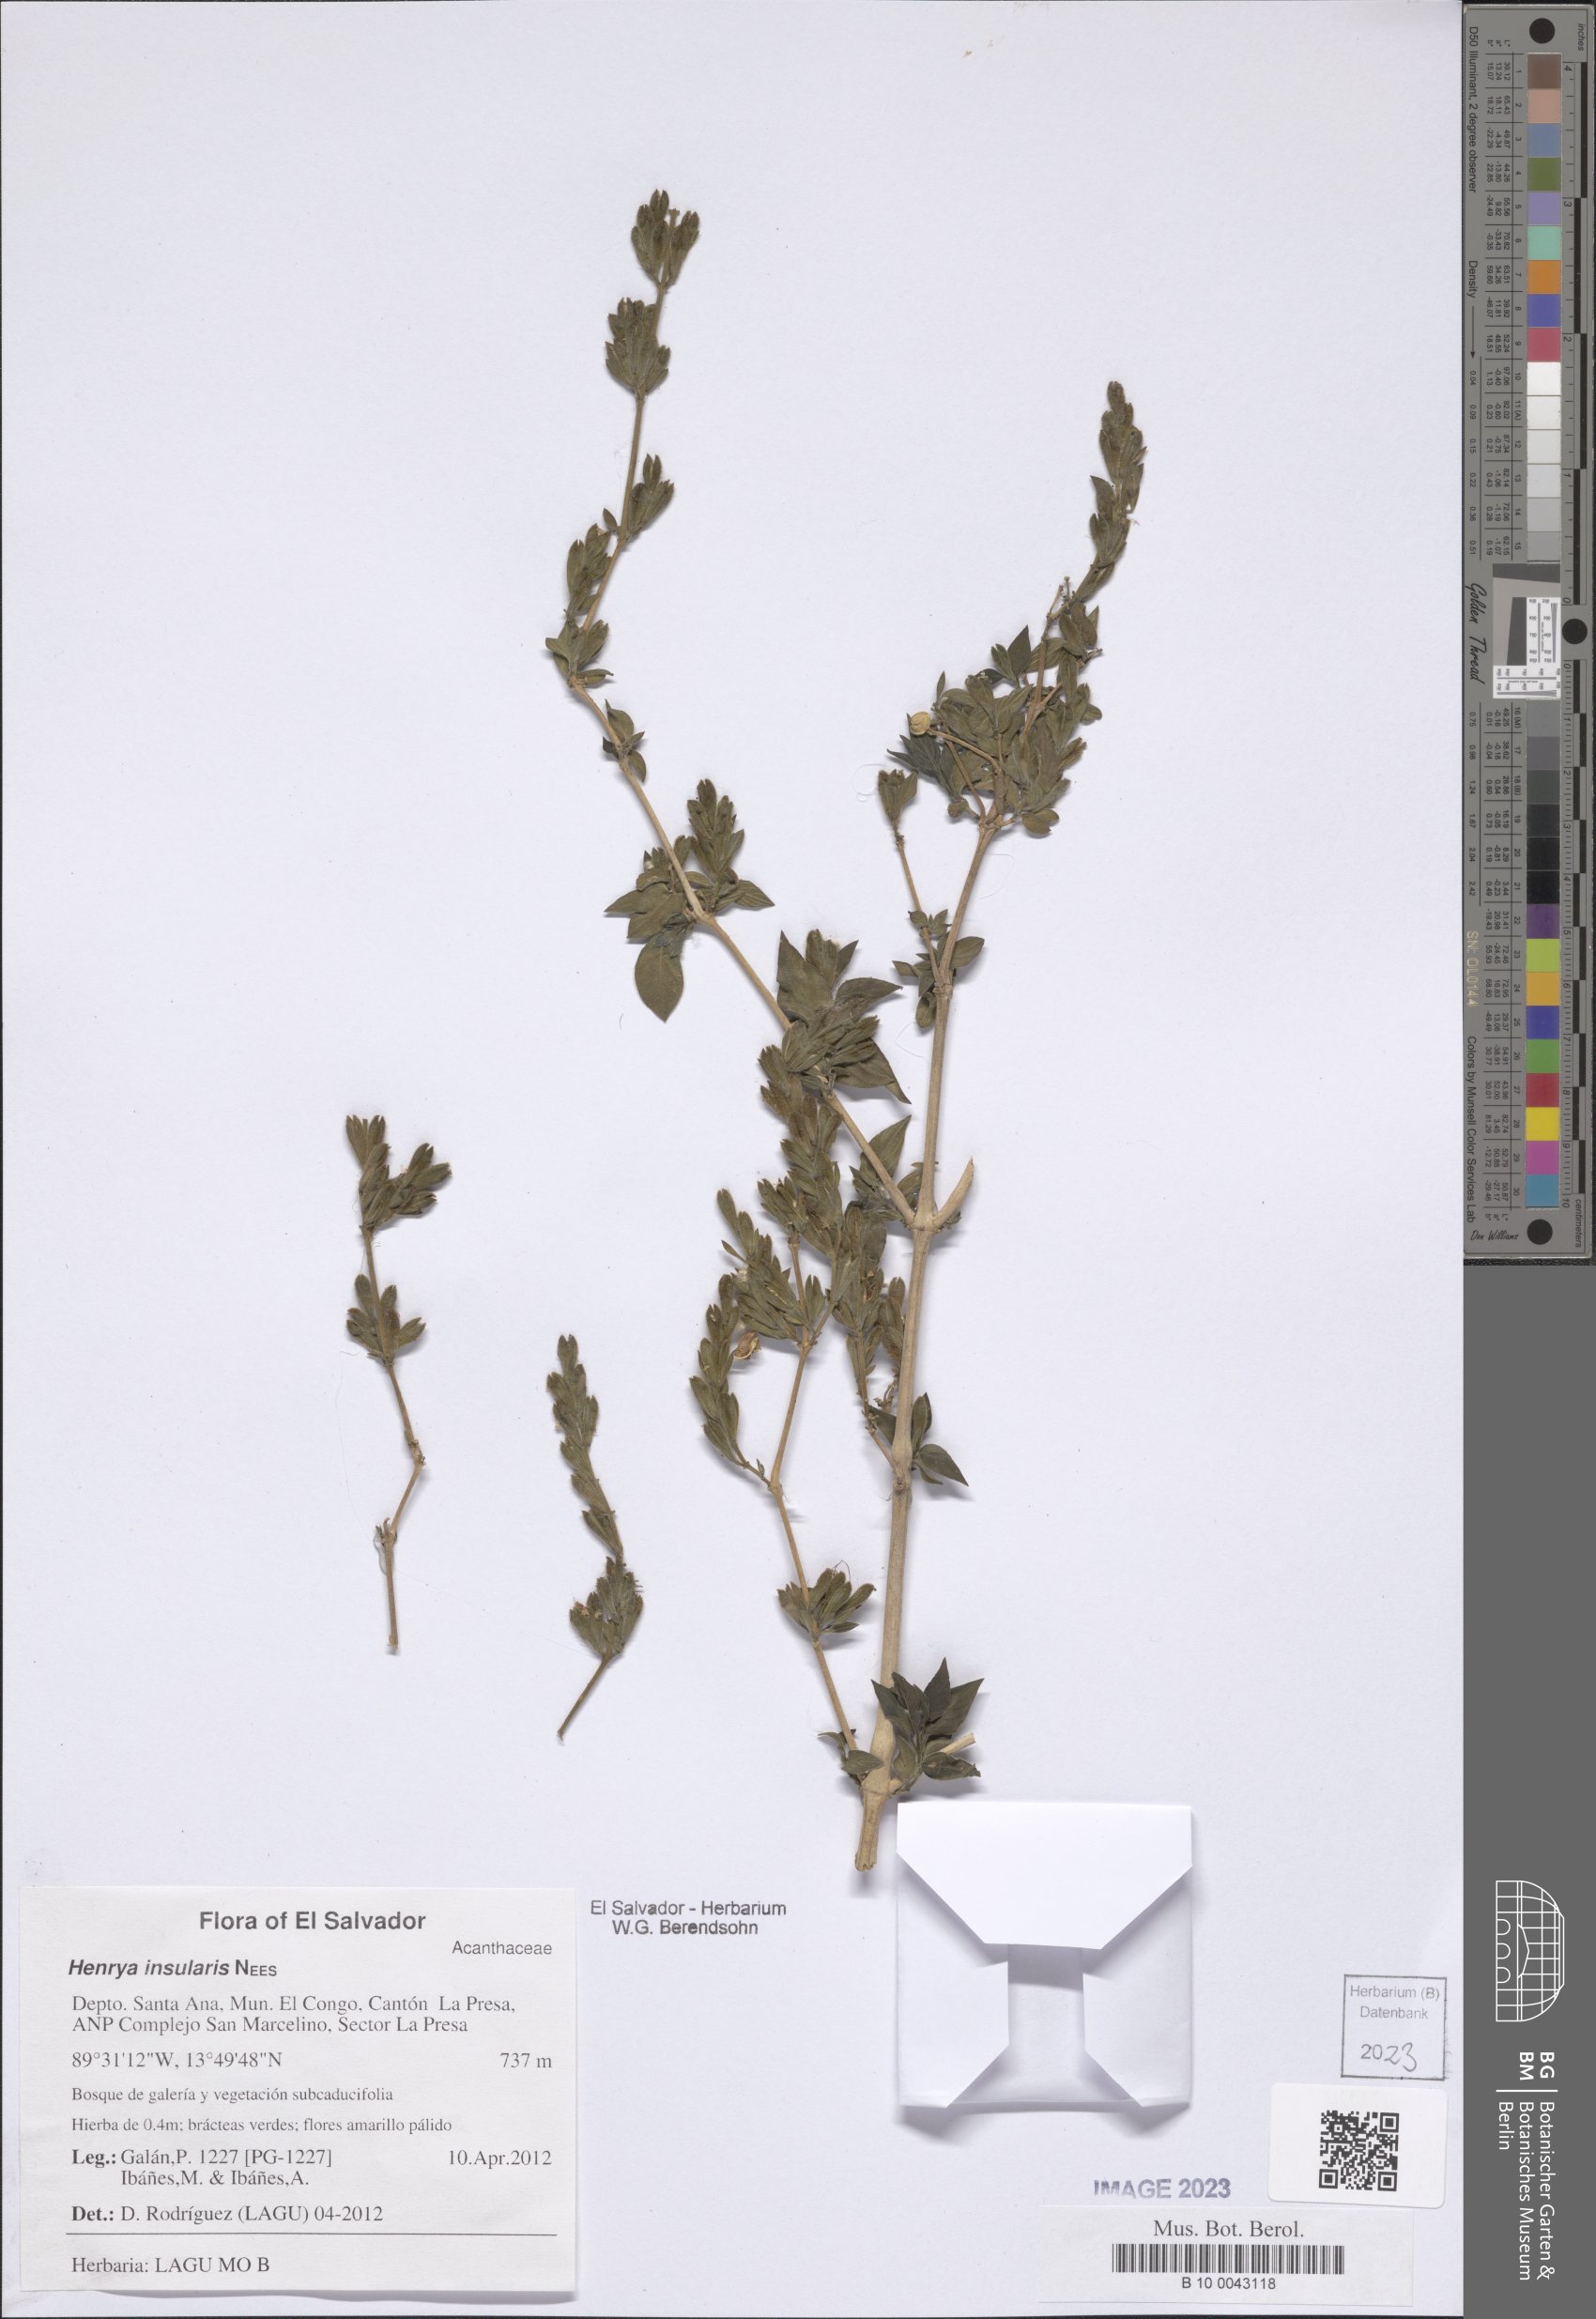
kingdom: Plantae
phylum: Tracheophyta
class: Magnoliopsida
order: Lamiales
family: Acanthaceae
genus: Henrya
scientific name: Henrya insularis
